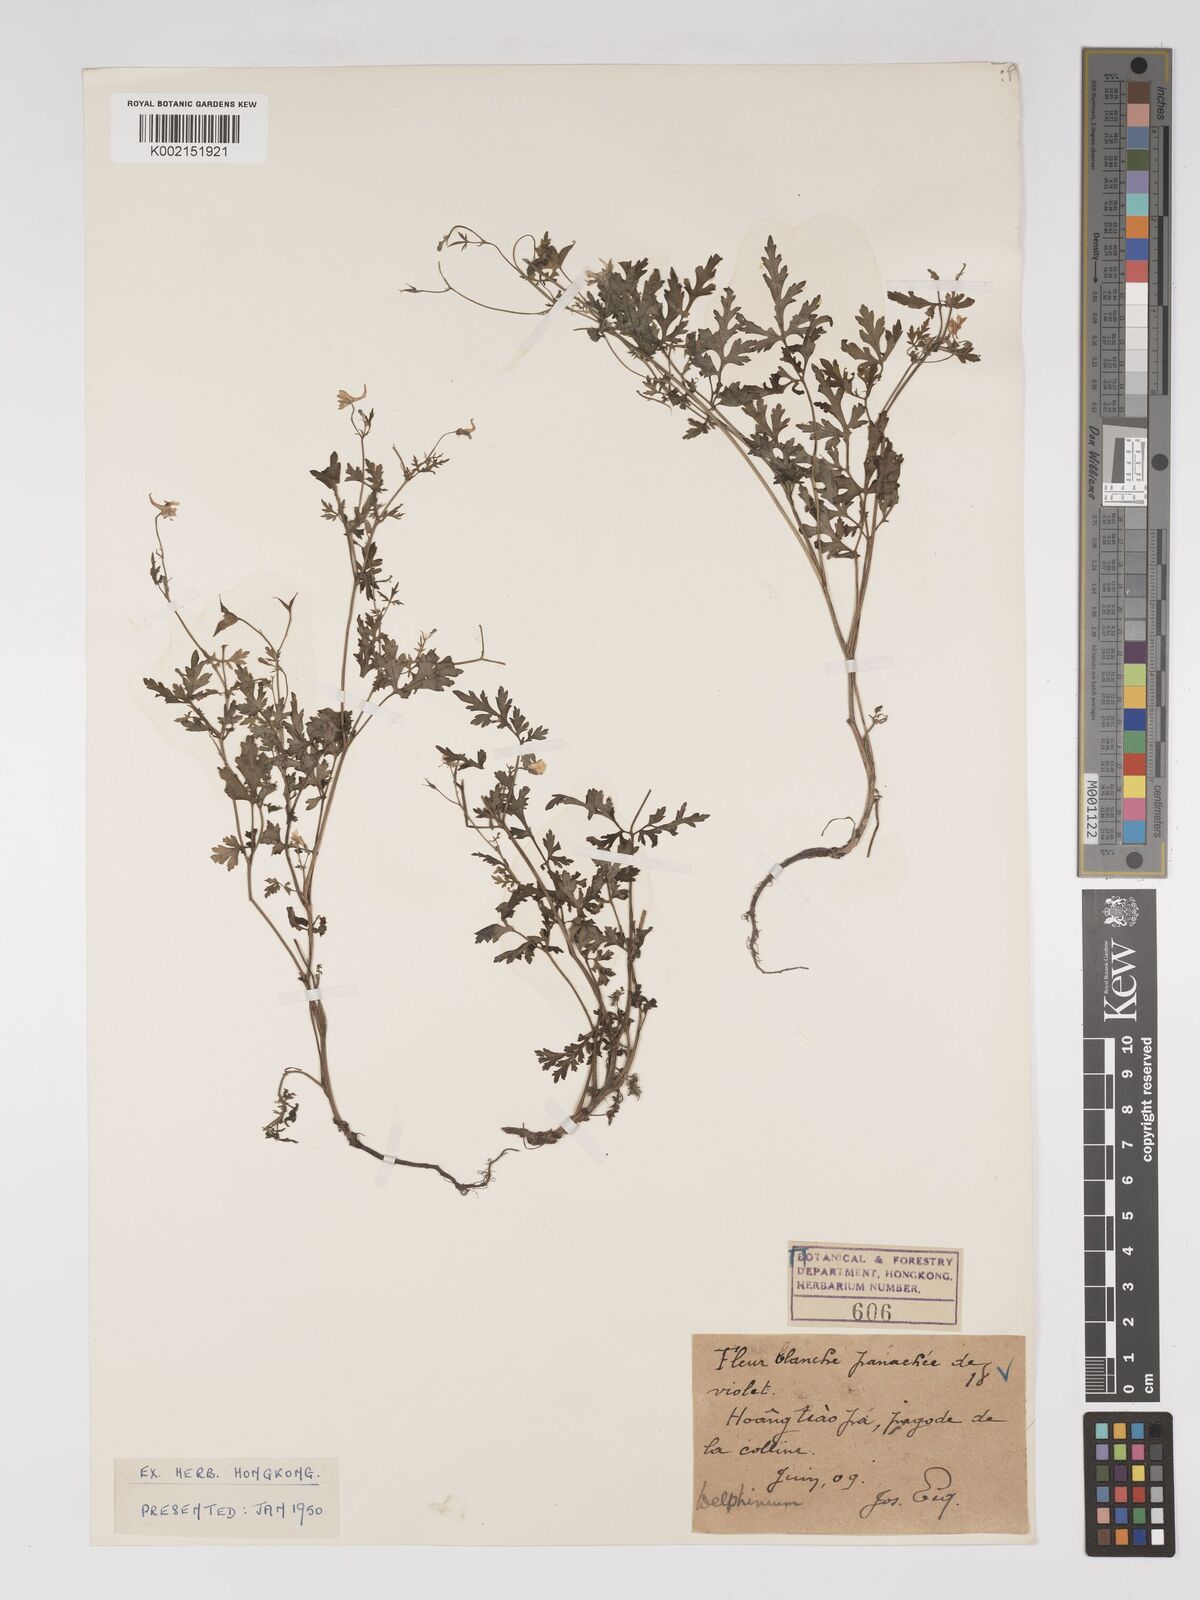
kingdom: Plantae
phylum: Tracheophyta
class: Magnoliopsida
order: Ranunculales
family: Ranunculaceae
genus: Delphinium
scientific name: Delphinium anthriscifolium
